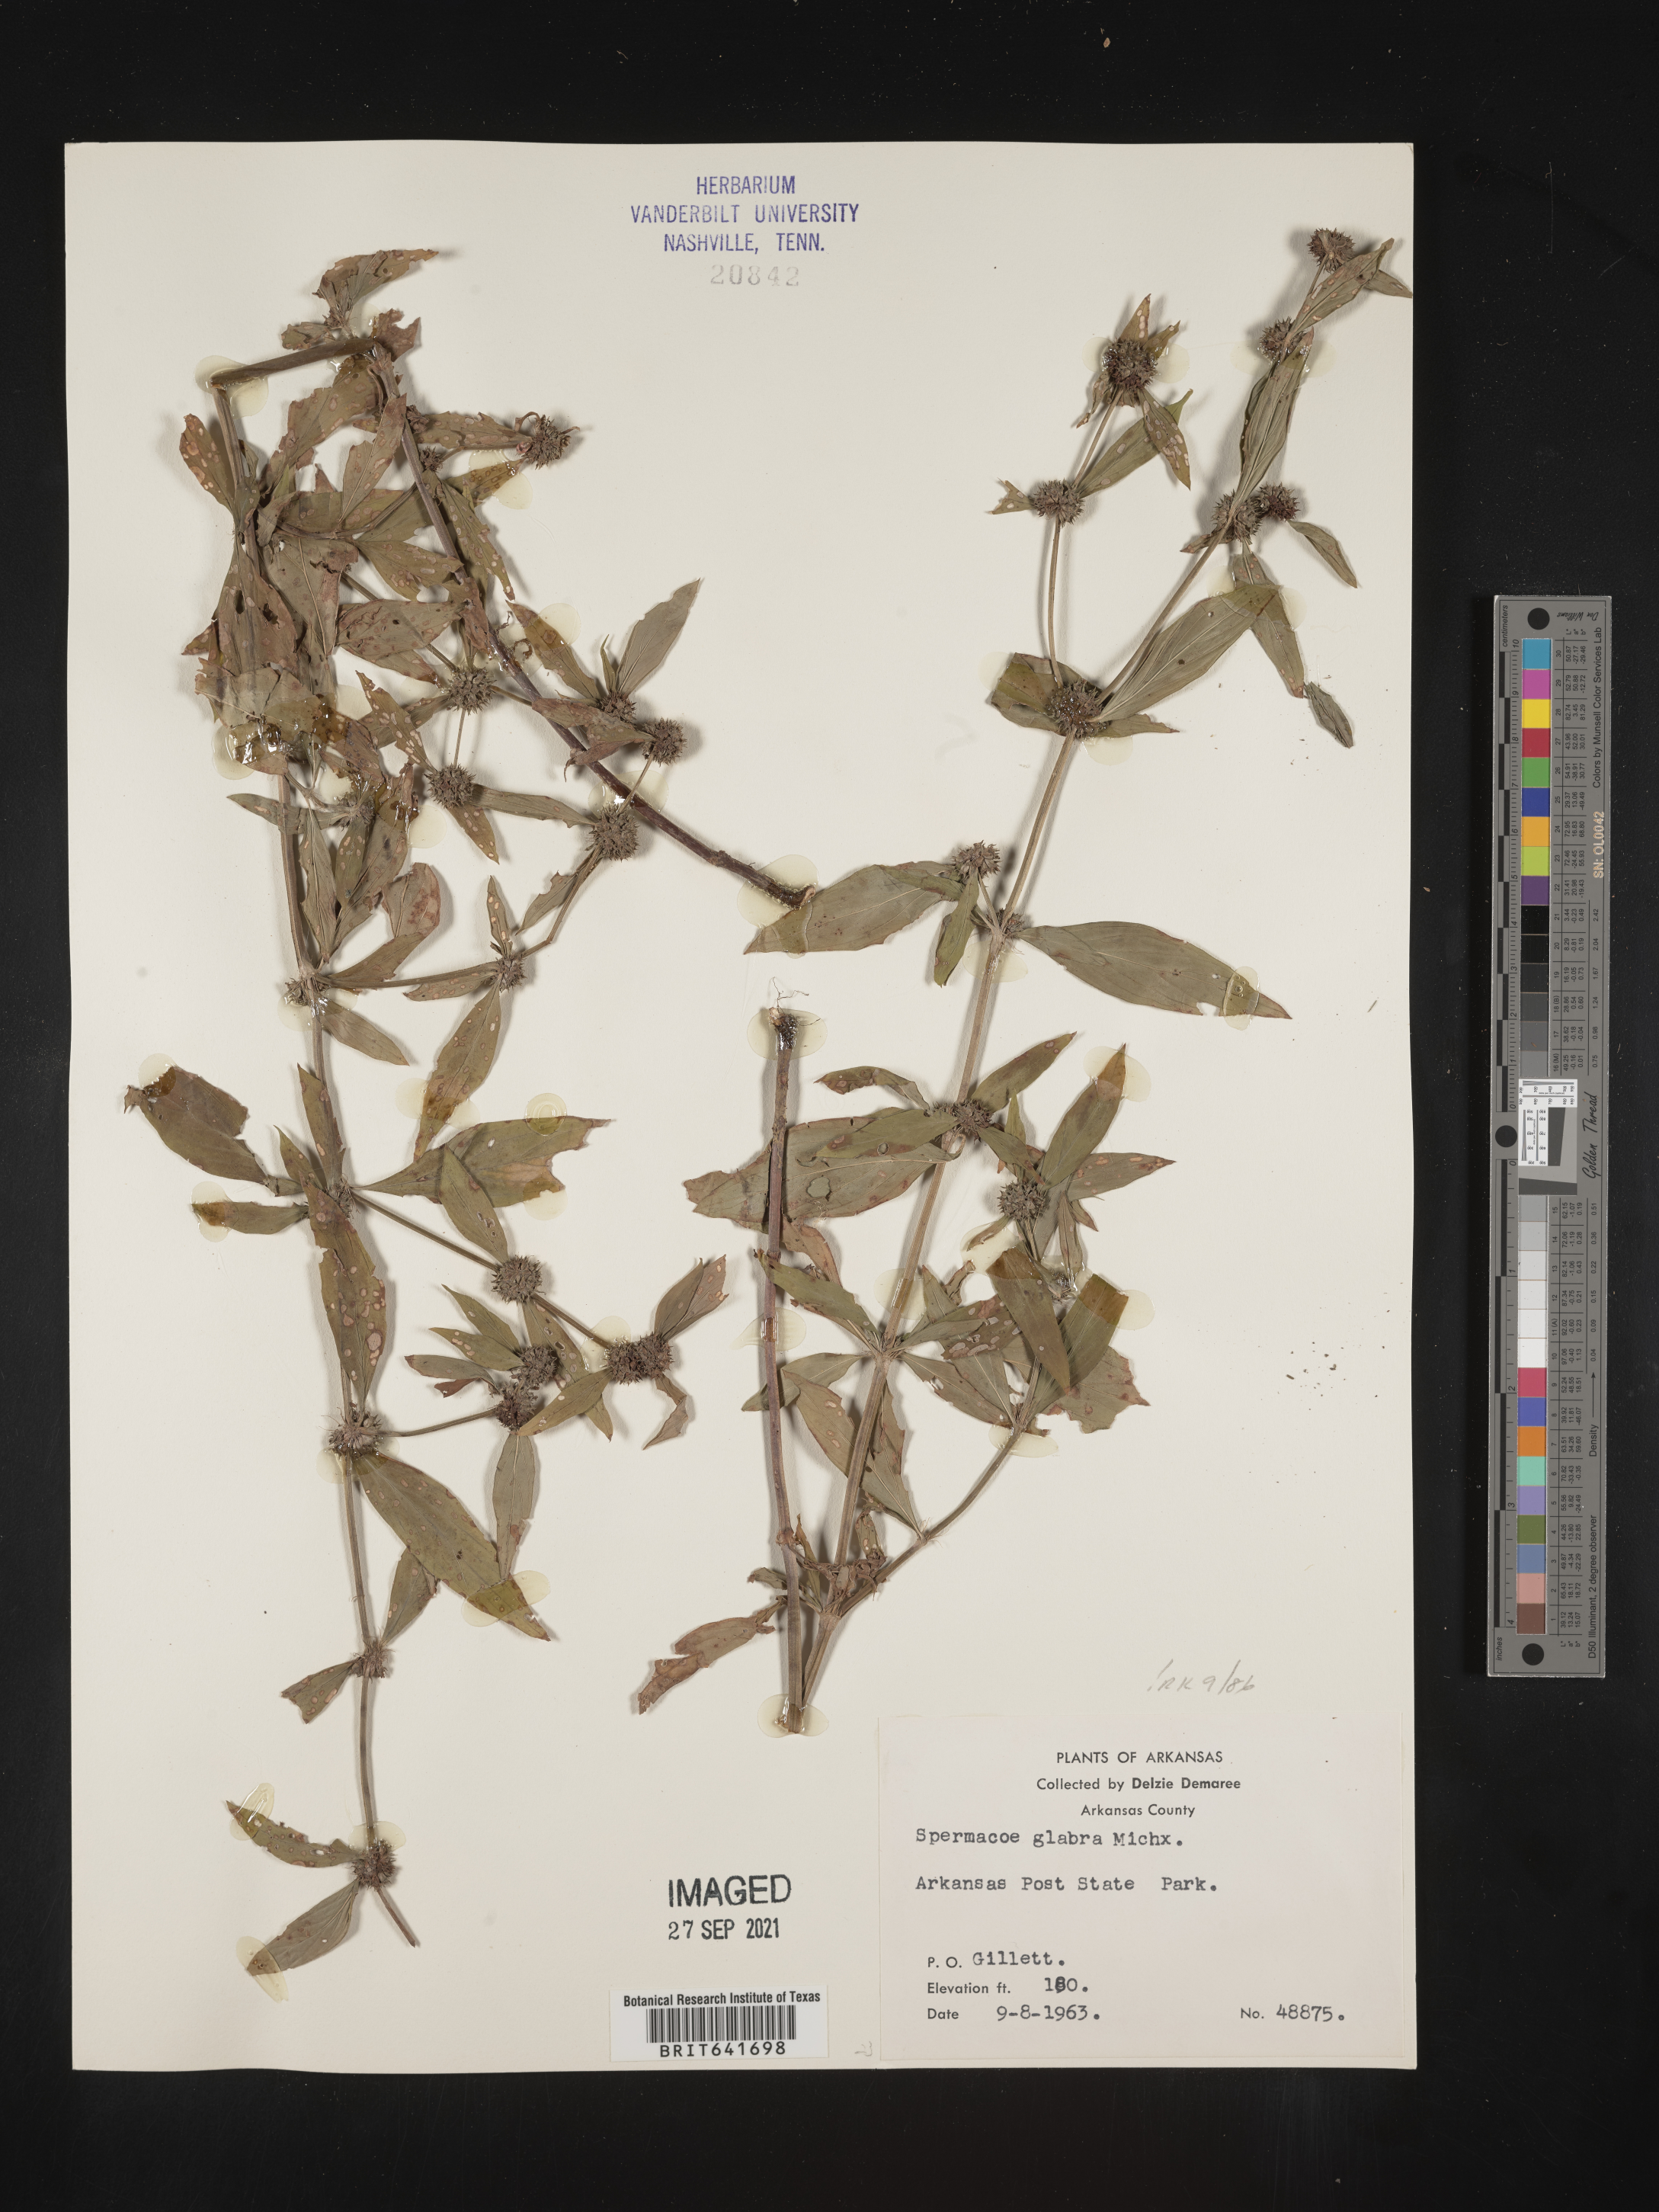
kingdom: Plantae
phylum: Tracheophyta
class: Magnoliopsida
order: Gentianales
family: Rubiaceae
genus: Spermacoce
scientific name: Spermacoce glabra
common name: Smooth buttonweed
